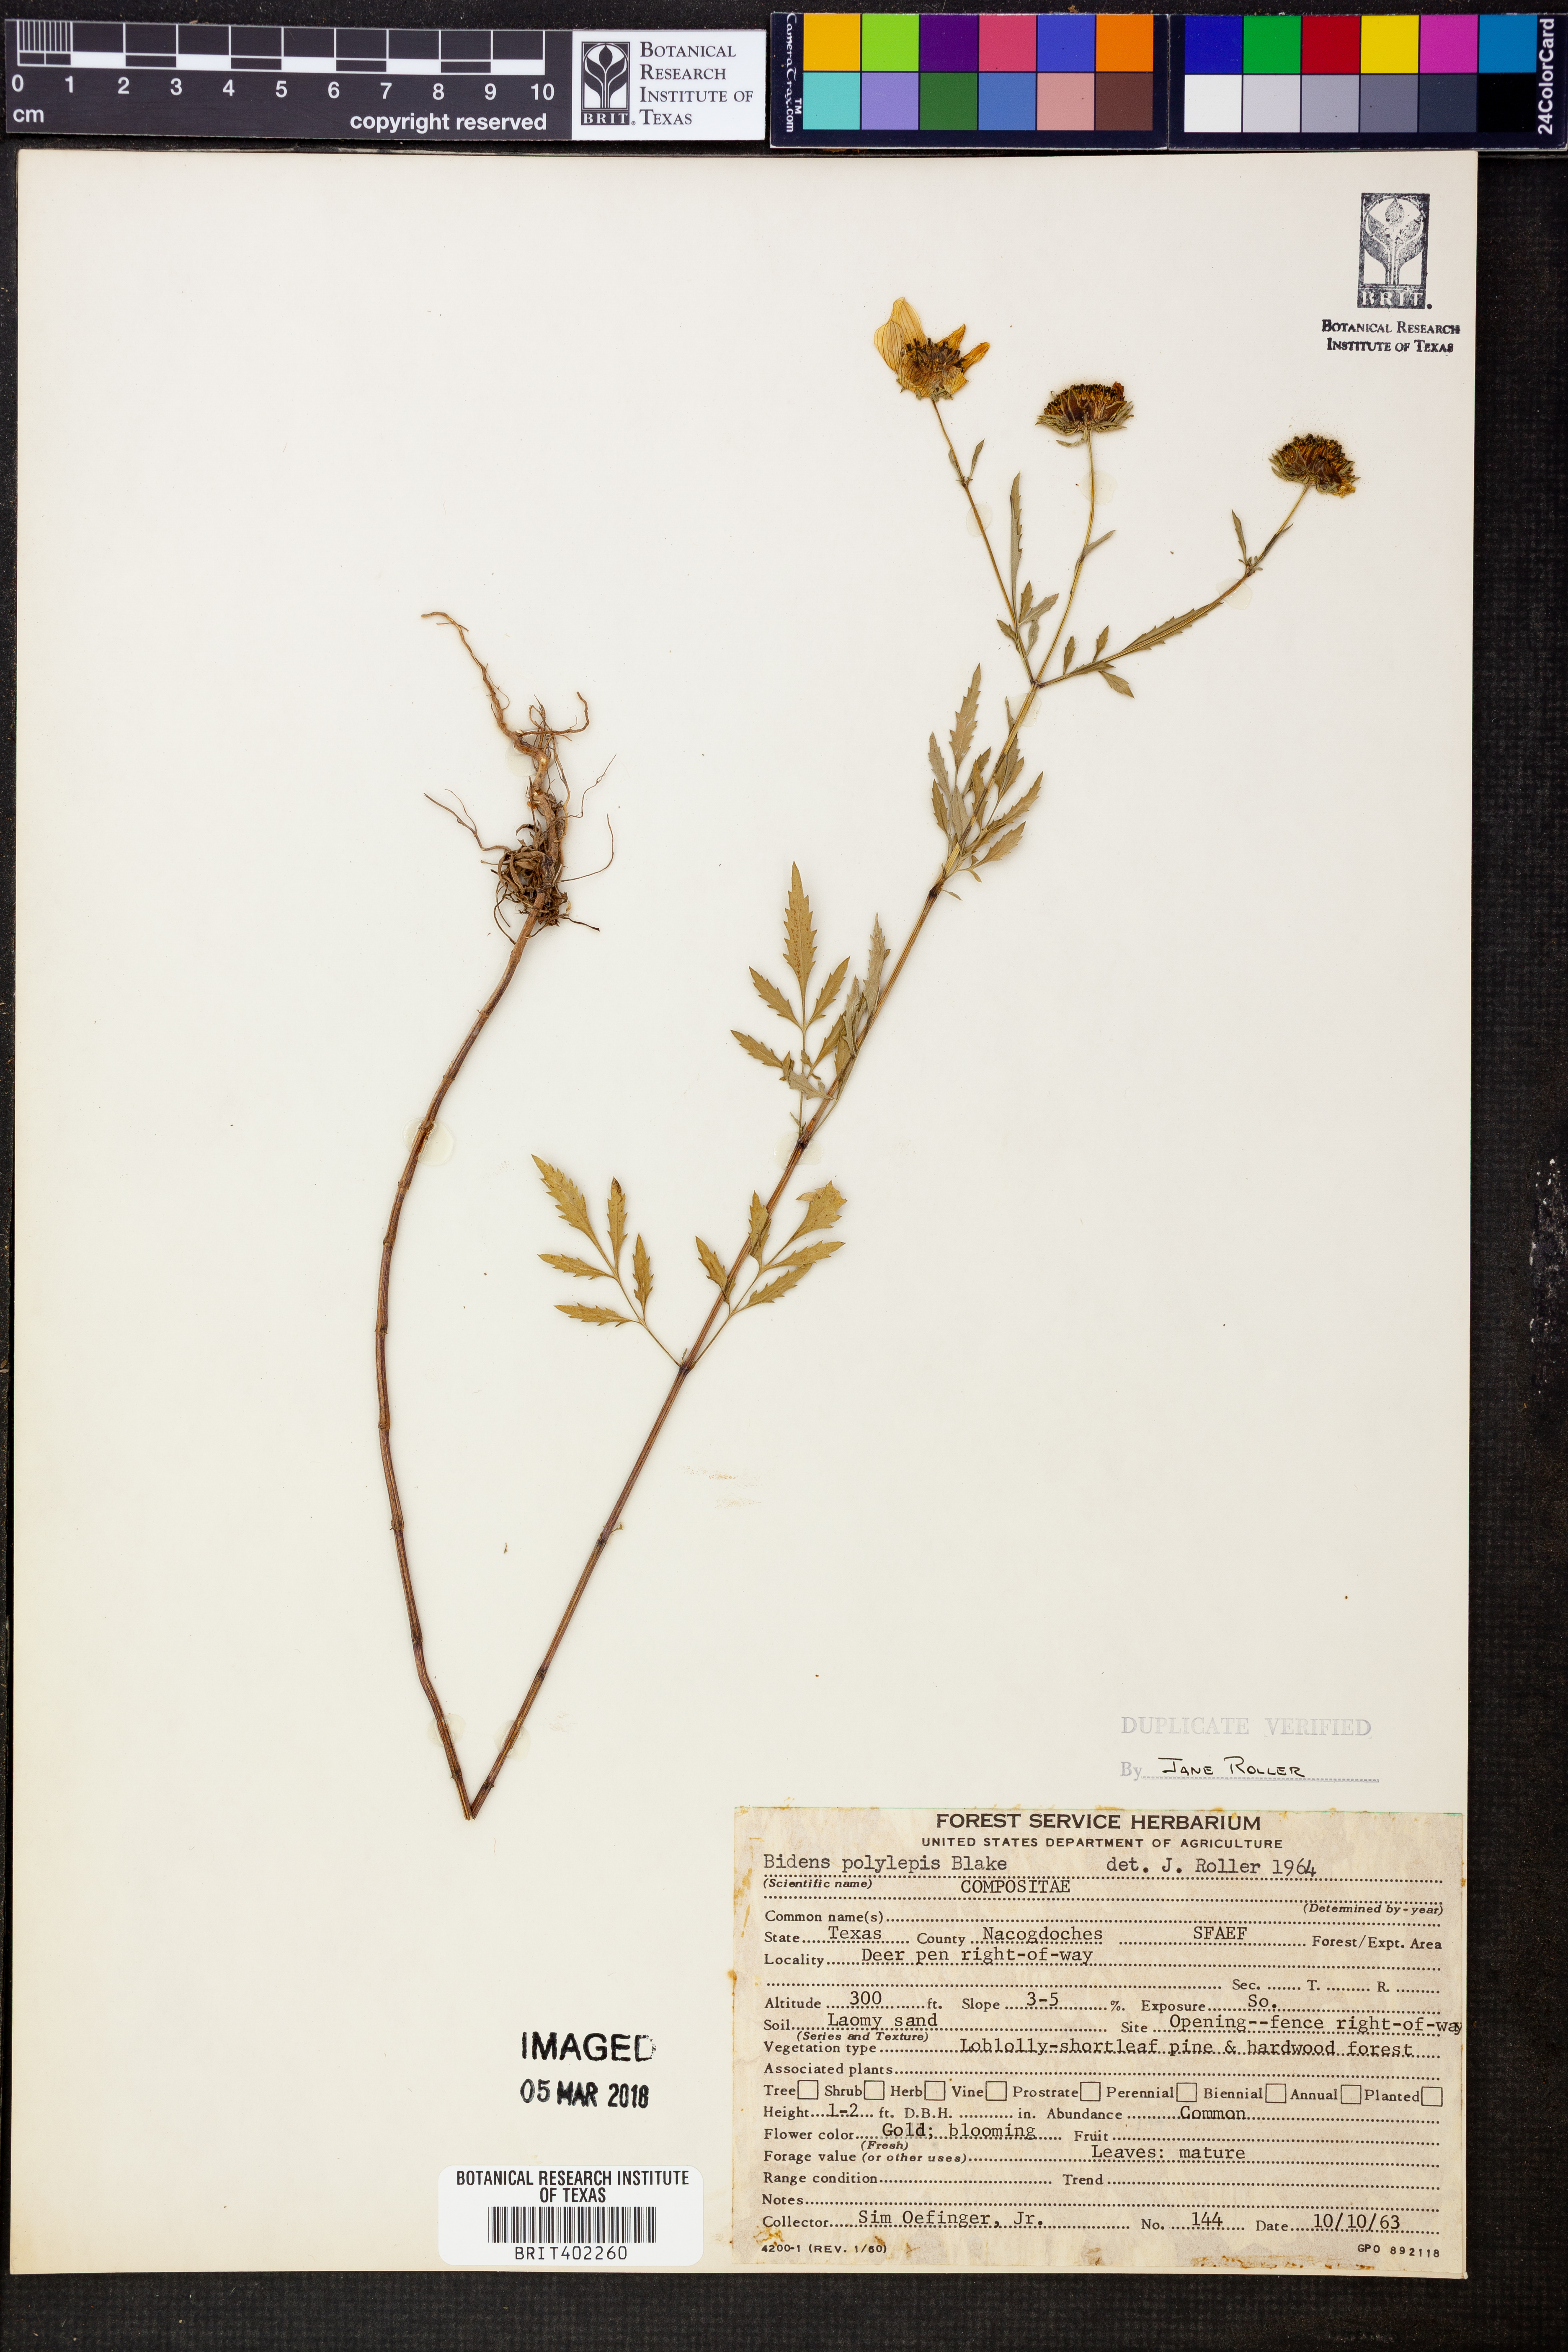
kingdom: Plantae
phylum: Tracheophyta
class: Magnoliopsida
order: Asterales
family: Asteraceae
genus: Bidens
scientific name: Bidens polylepis
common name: Awnless beggarticks
